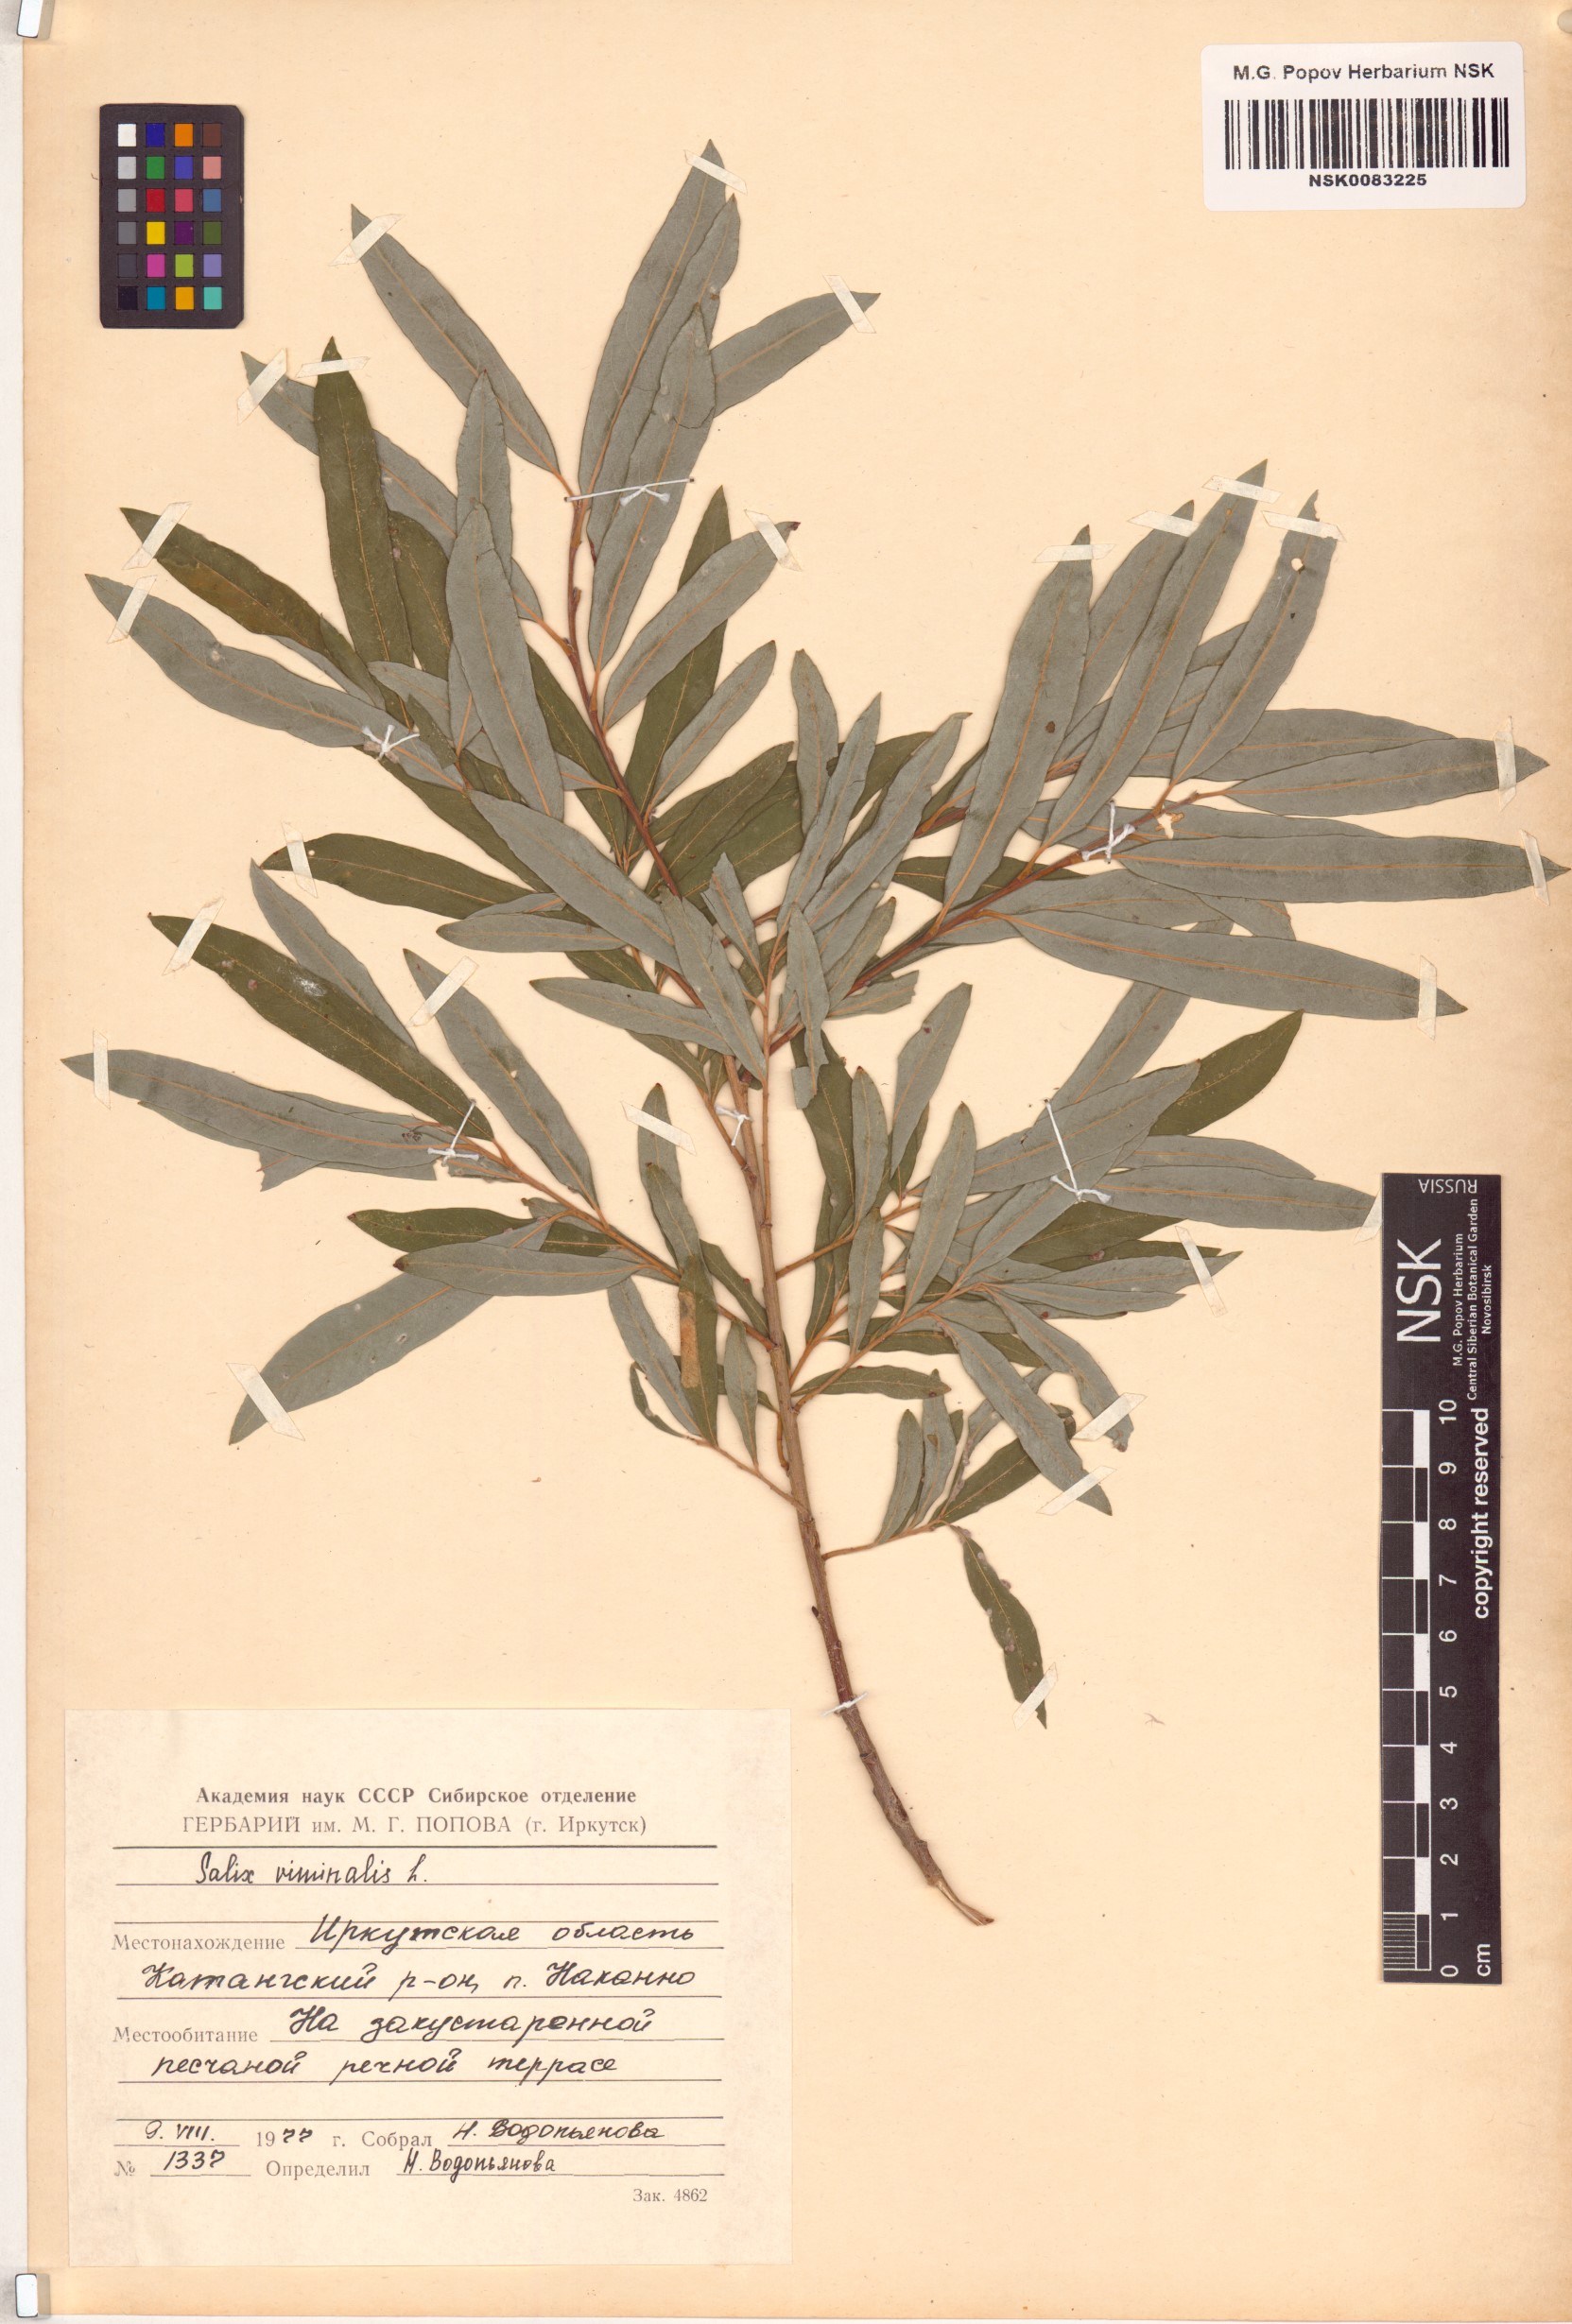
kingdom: Plantae
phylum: Tracheophyta
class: Magnoliopsida
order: Malpighiales
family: Salicaceae
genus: Salix
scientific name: Salix viminalis
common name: Osier
